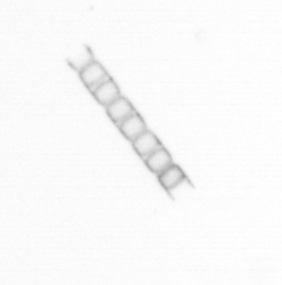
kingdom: Chromista
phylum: Ochrophyta
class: Bacillariophyceae
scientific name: Bacillariophyceae
